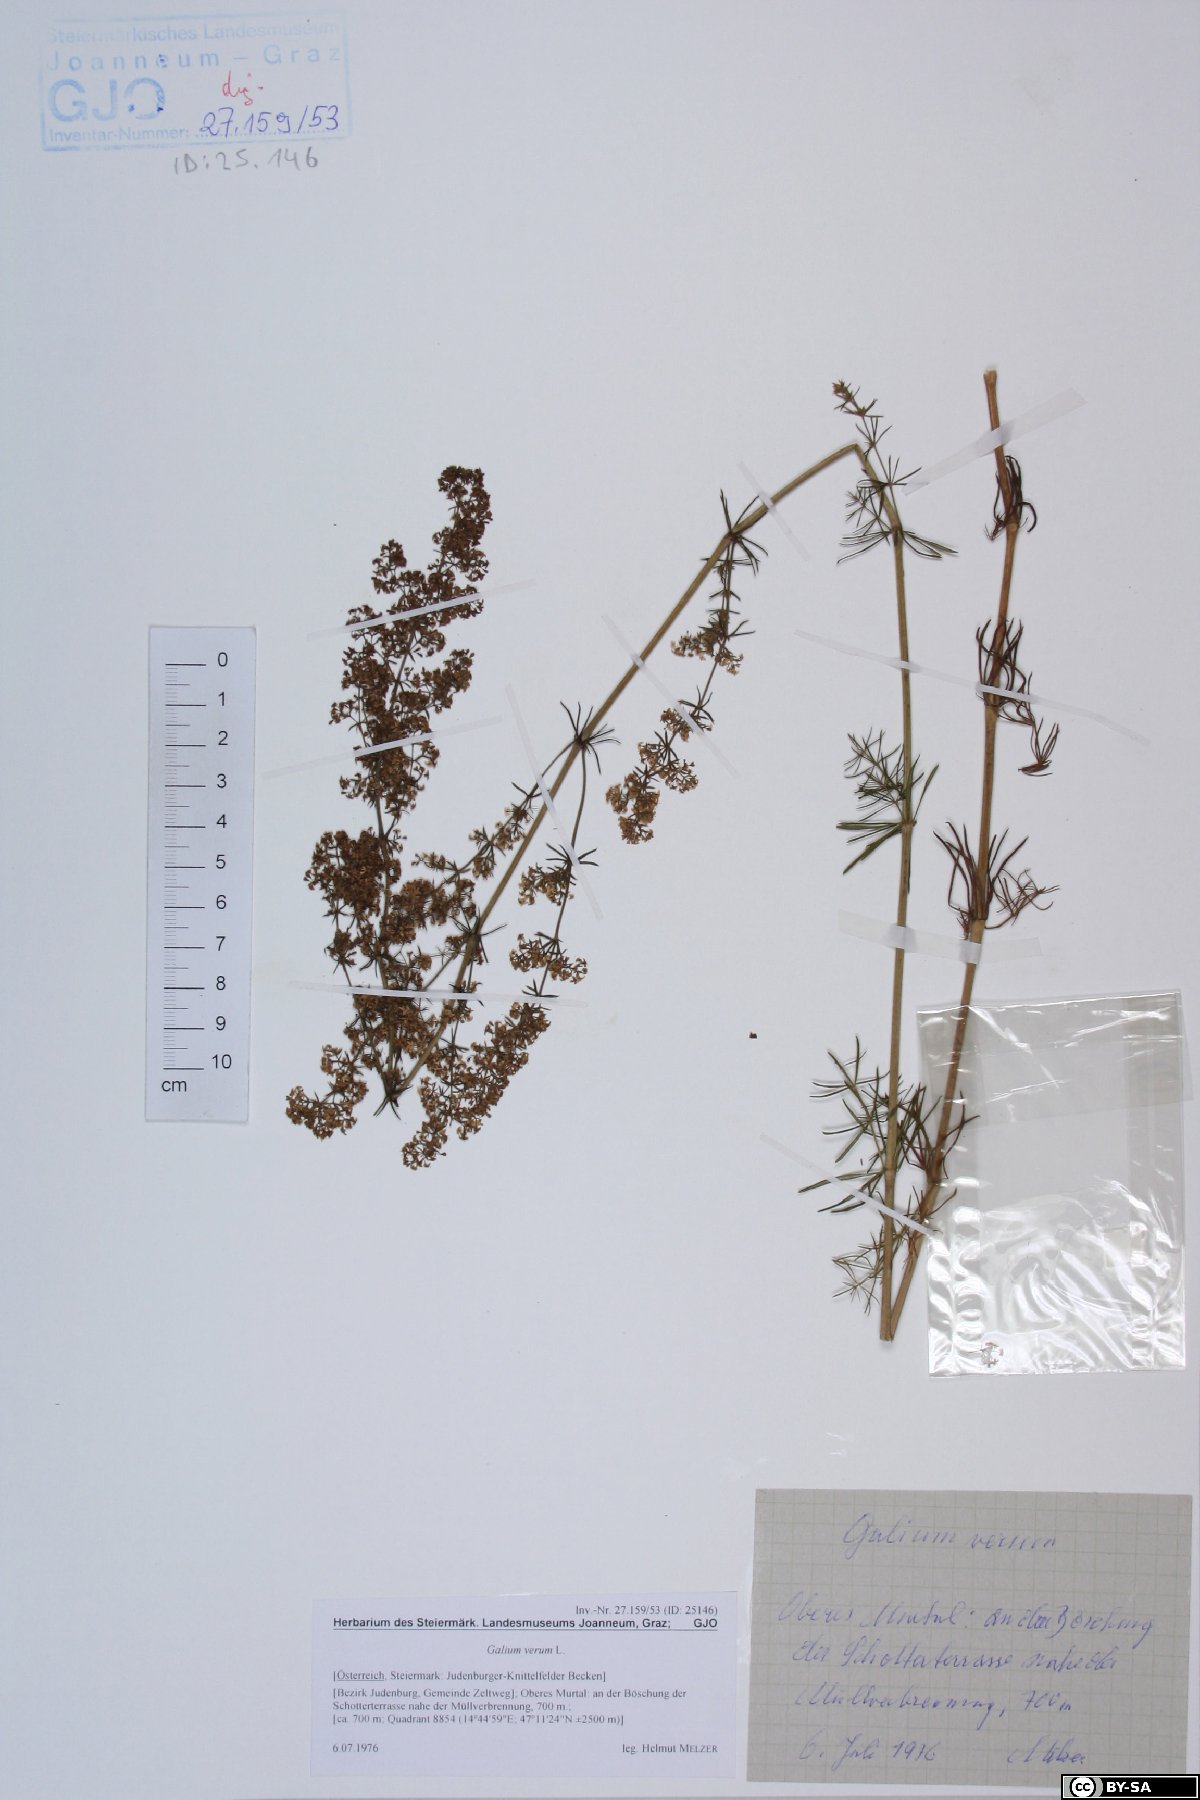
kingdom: Plantae
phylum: Tracheophyta
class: Magnoliopsida
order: Gentianales
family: Rubiaceae
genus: Galium
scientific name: Galium verum
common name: Lady's bedstraw
